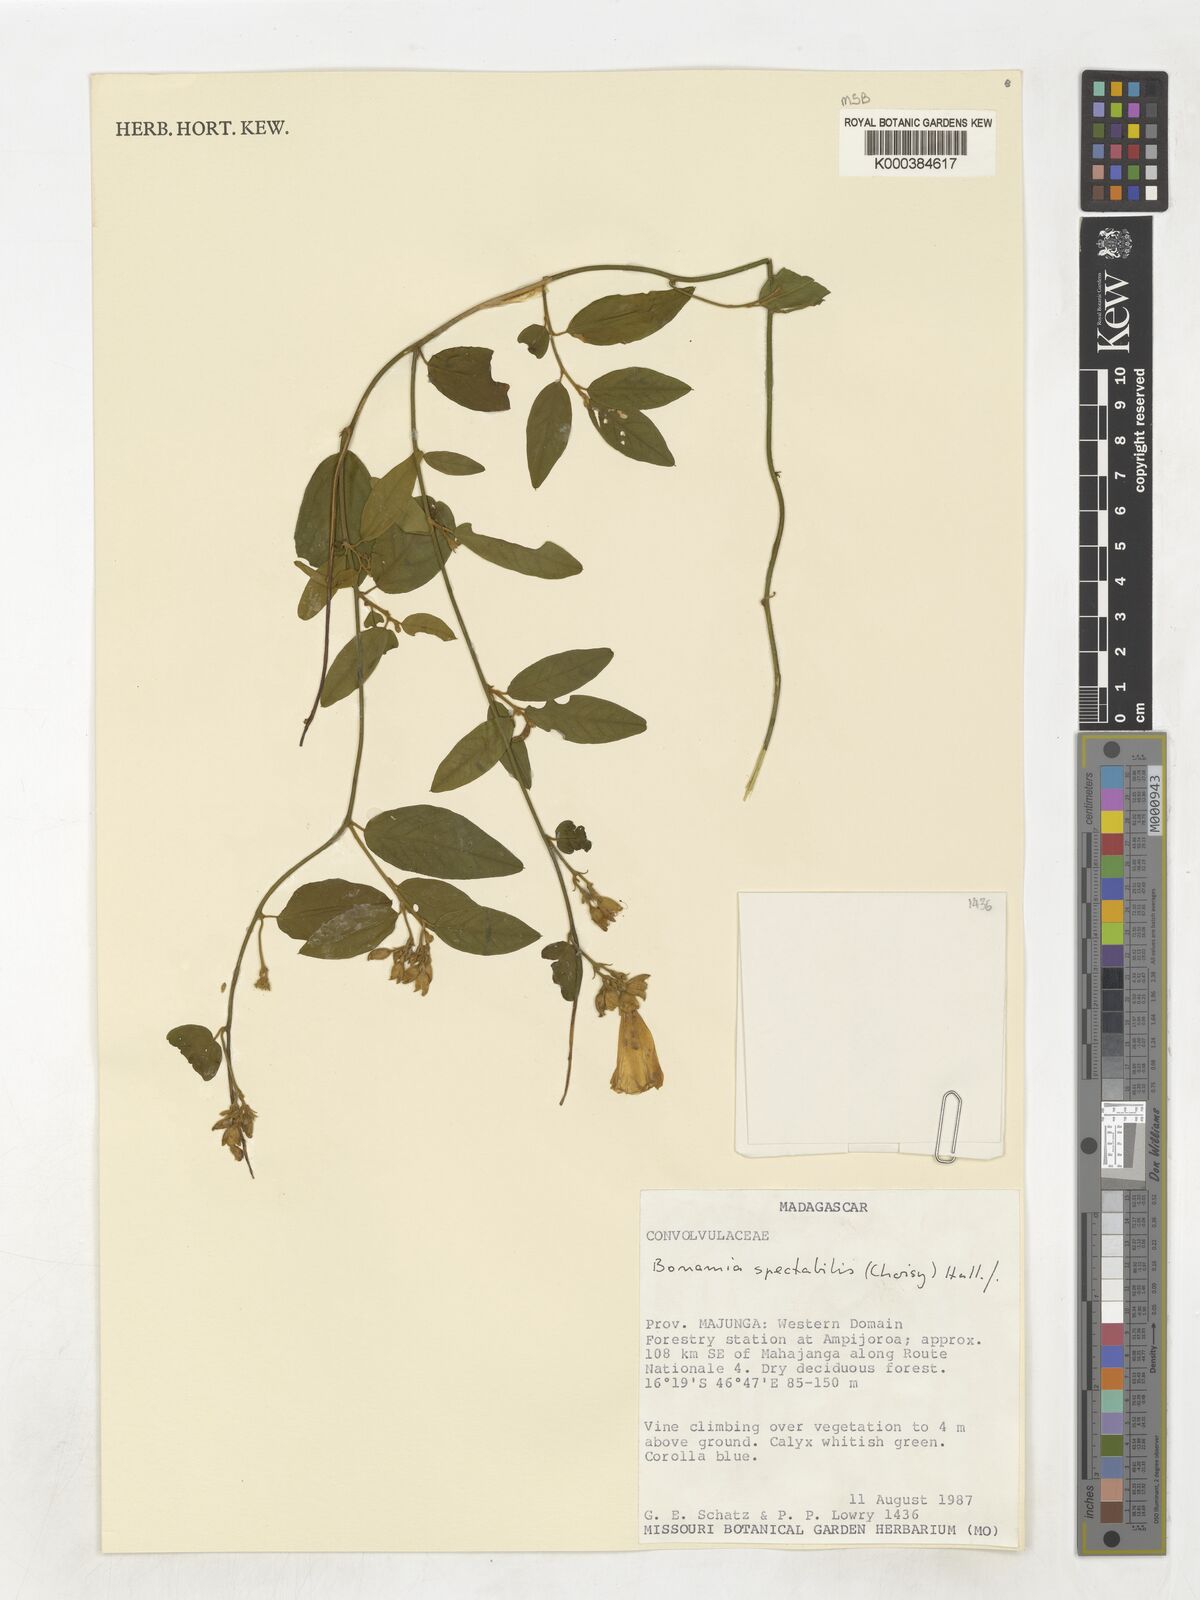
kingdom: Plantae
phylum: Tracheophyta
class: Magnoliopsida
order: Solanales
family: Convolvulaceae
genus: Bonamia
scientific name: Bonamia spectabilis
